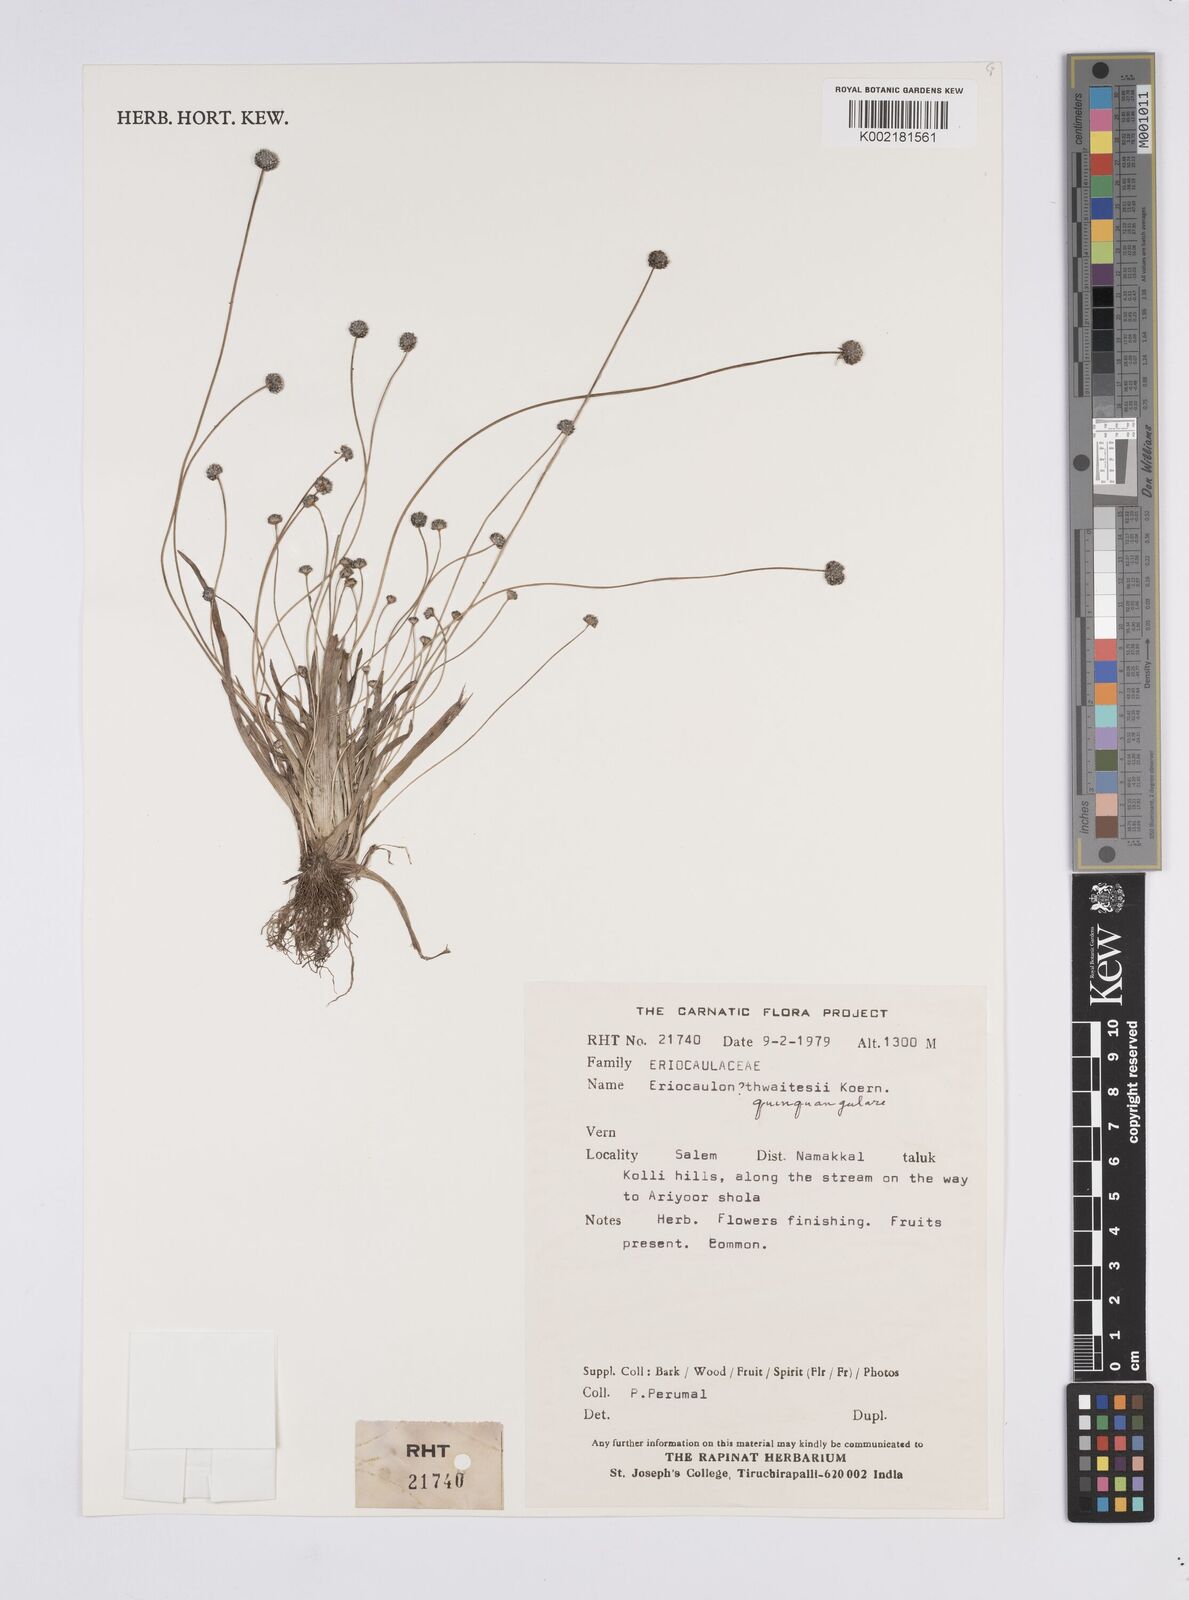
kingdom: Plantae
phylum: Tracheophyta
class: Liliopsida
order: Poales
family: Eriocaulaceae
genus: Eriocaulon
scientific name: Eriocaulon thwaitesii
